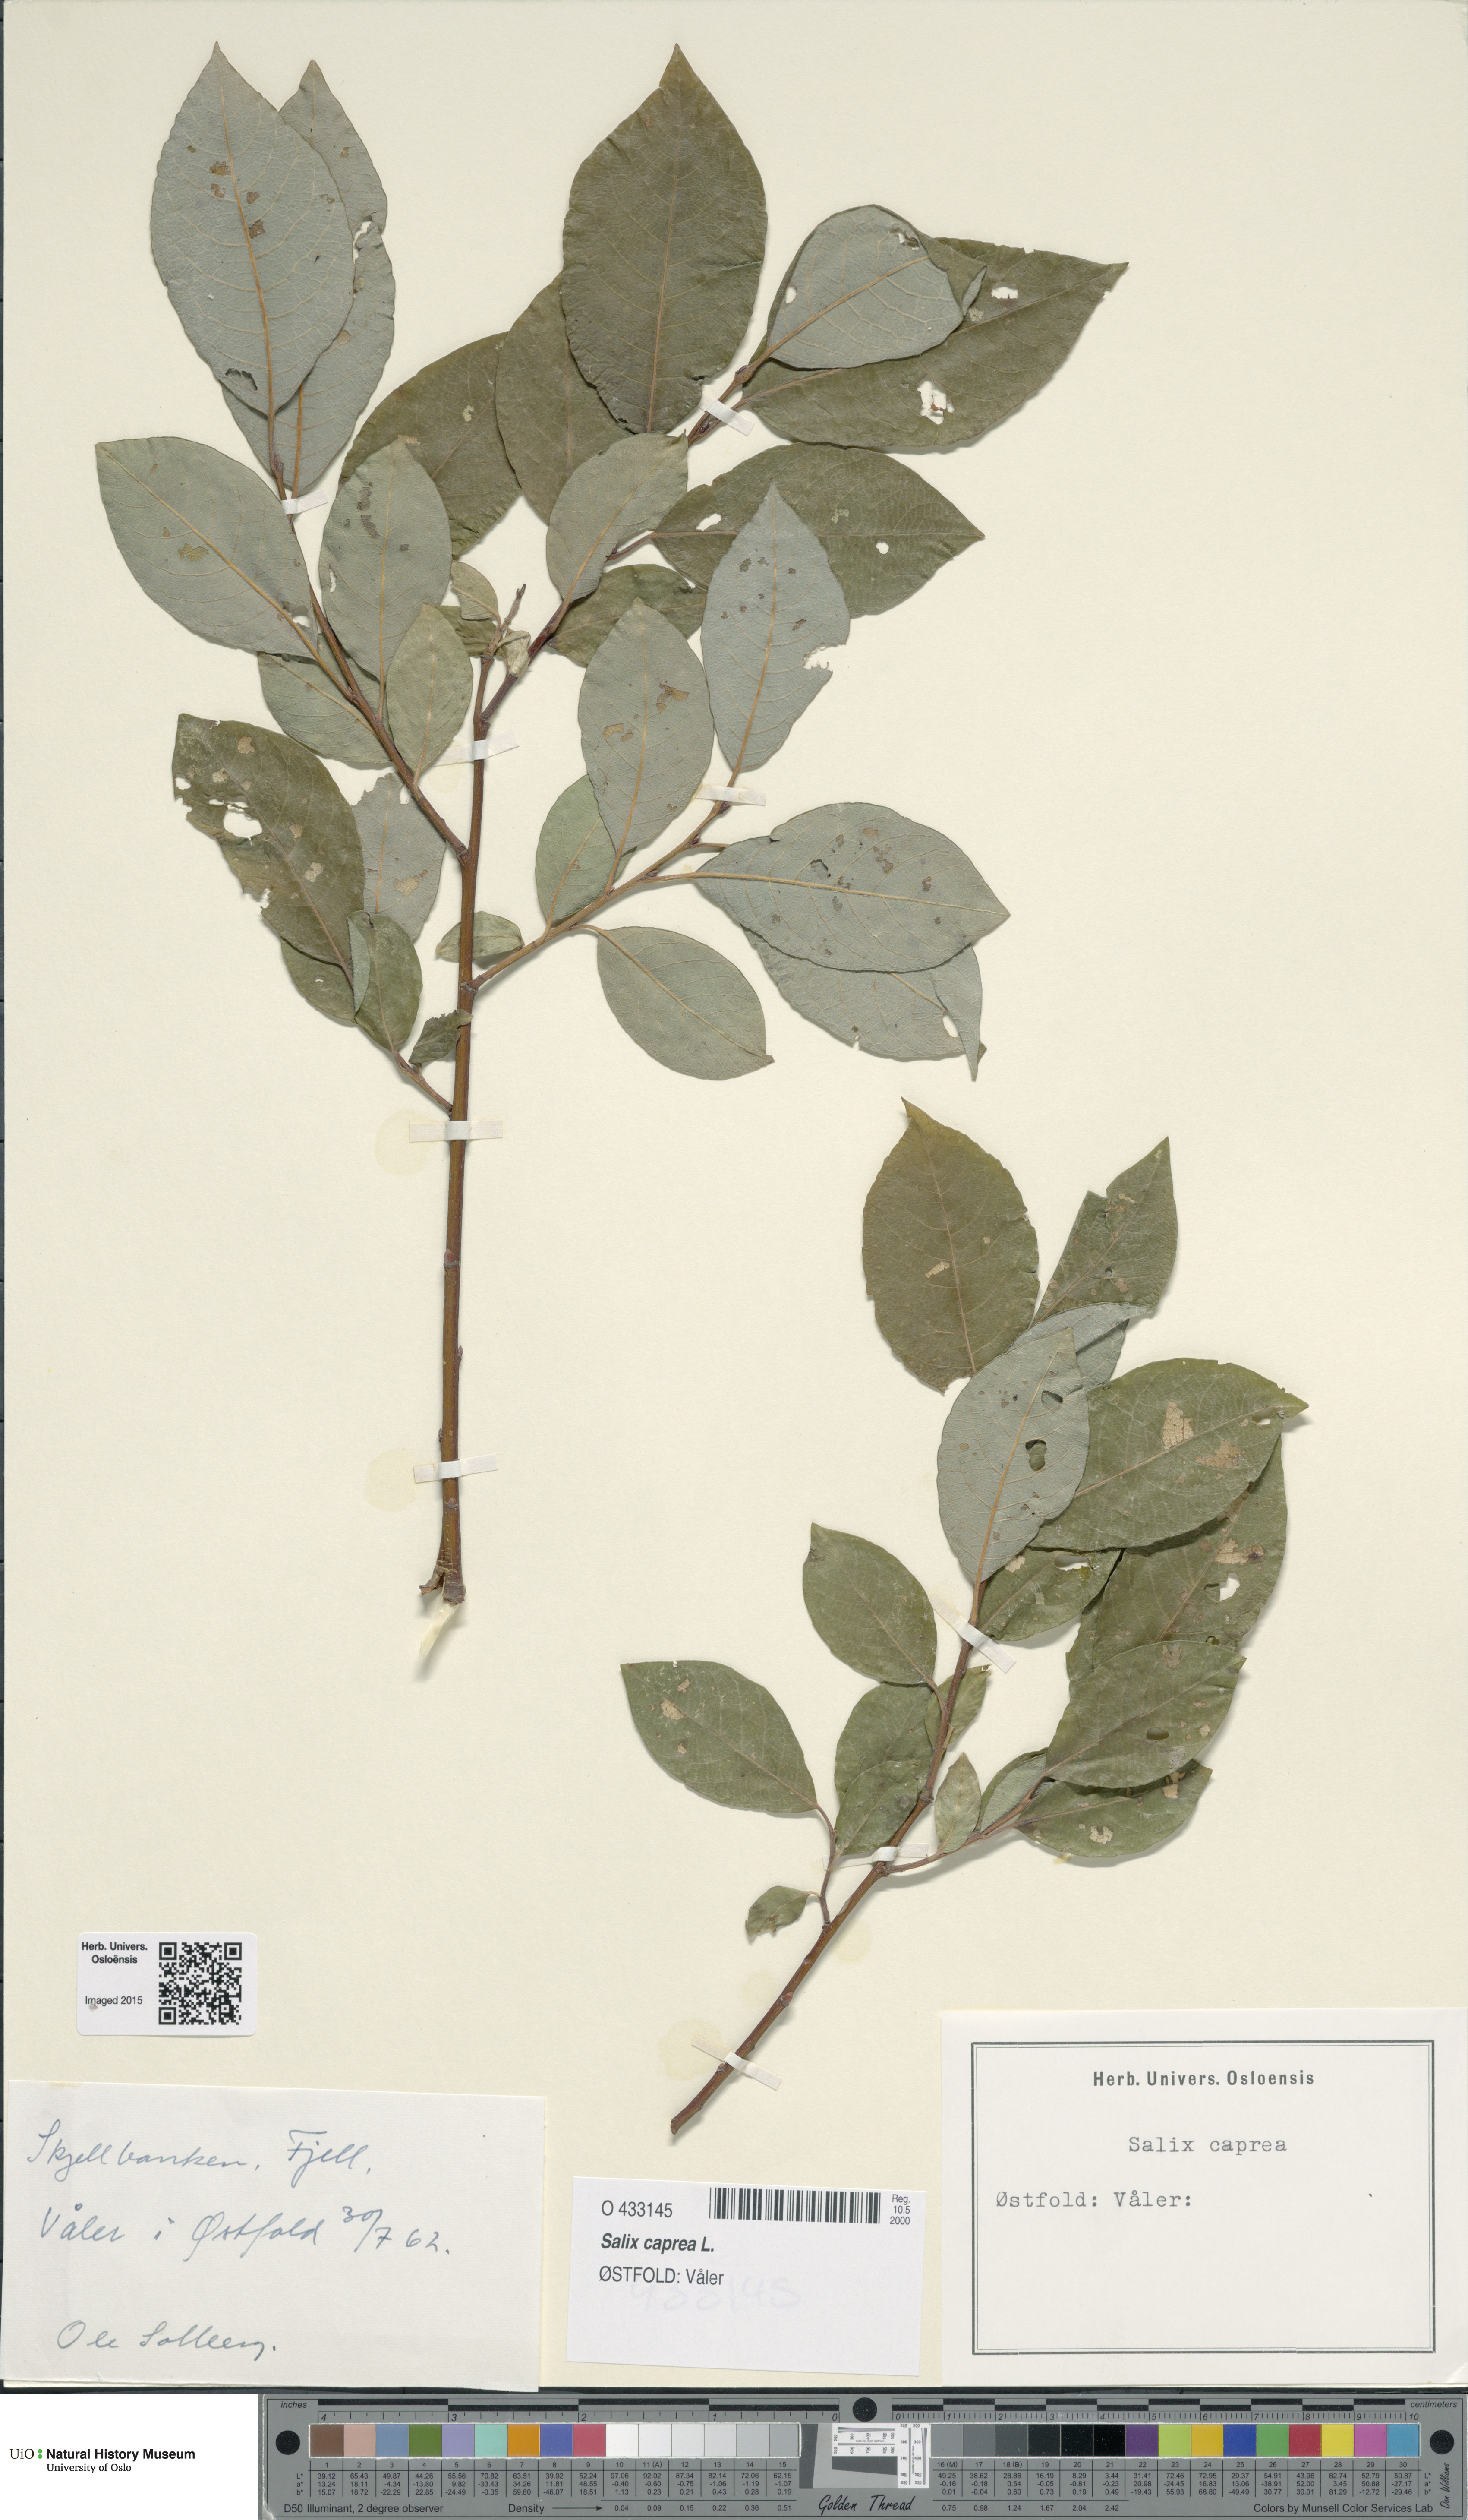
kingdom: Plantae
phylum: Tracheophyta
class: Magnoliopsida
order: Malpighiales
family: Salicaceae
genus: Salix
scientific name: Salix caprea
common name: Goat willow
